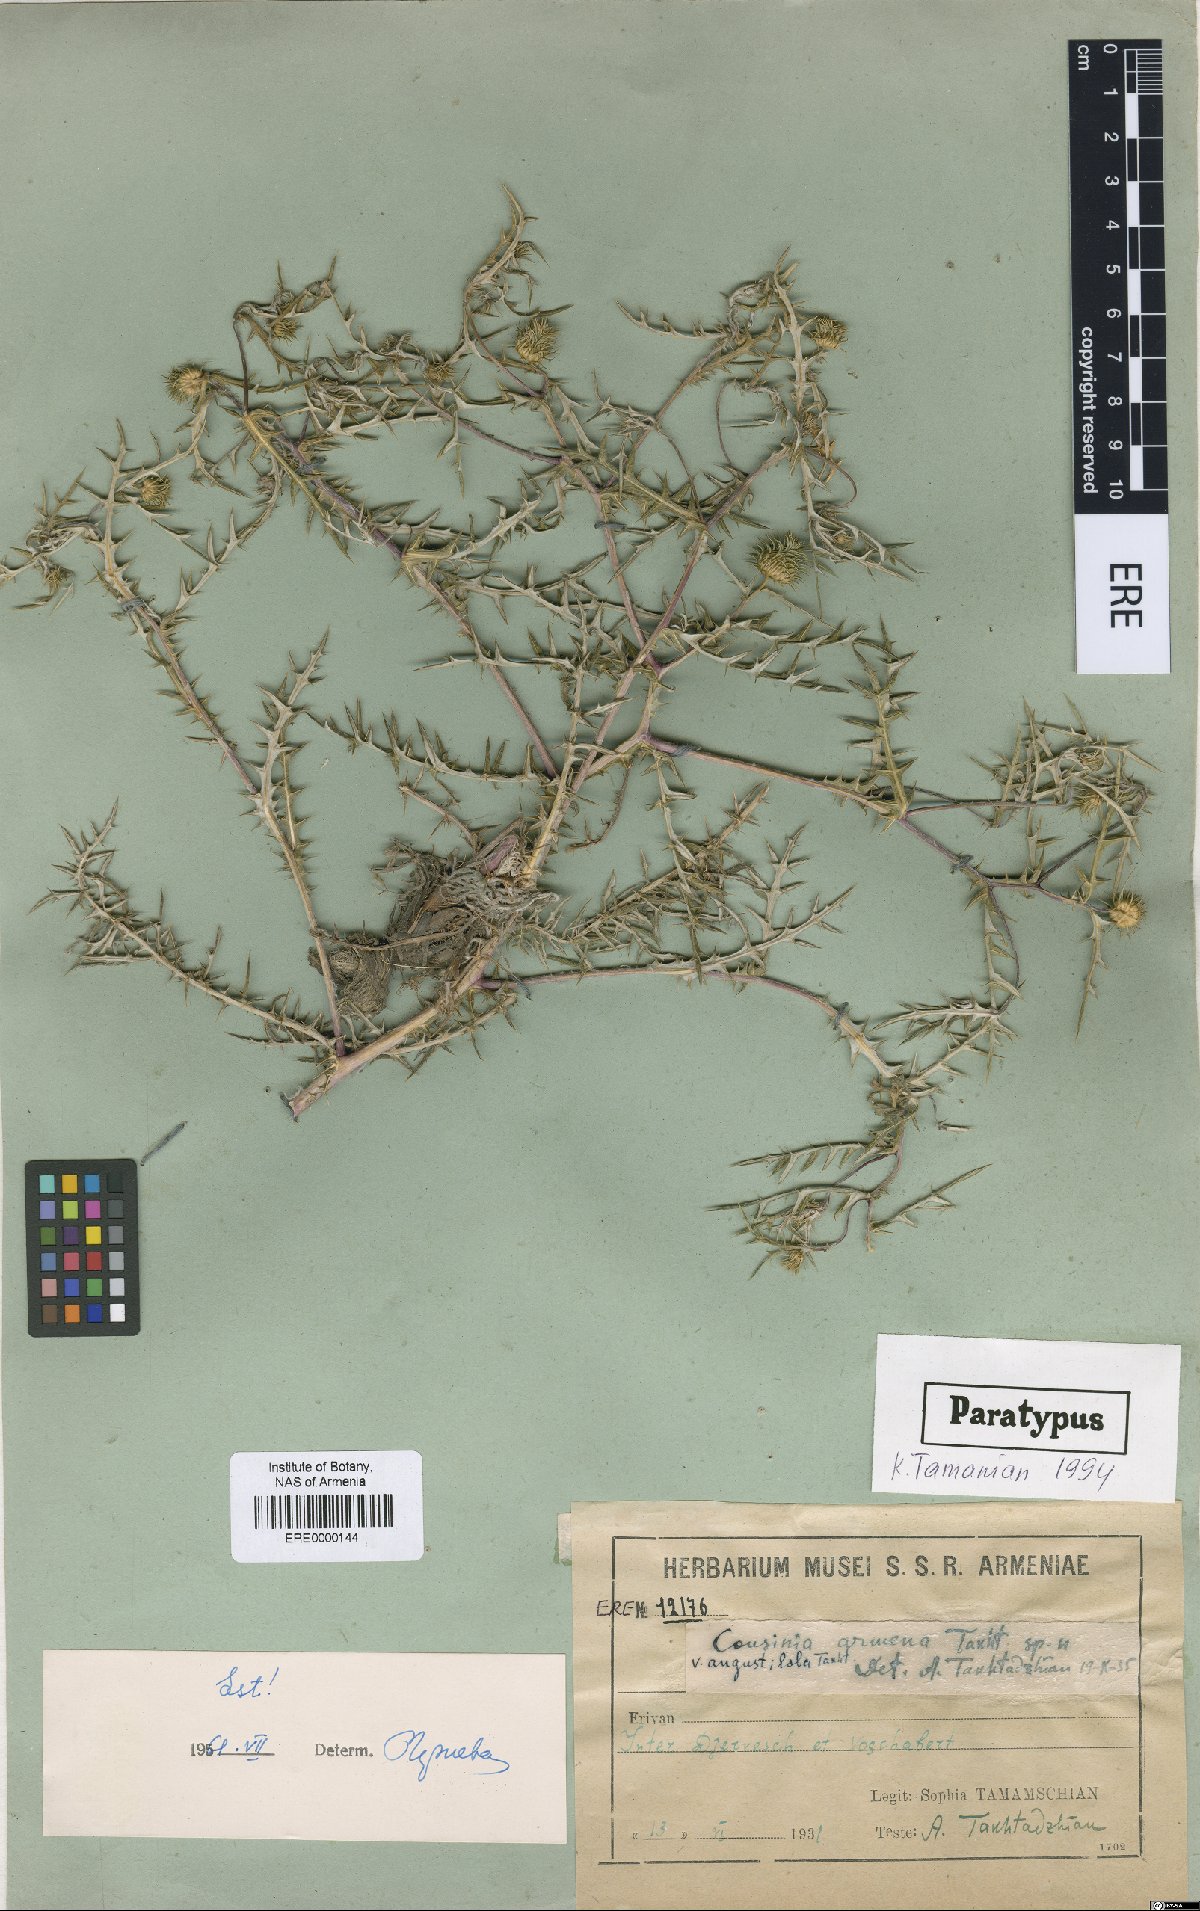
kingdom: Plantae
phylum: Tracheophyta
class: Magnoliopsida
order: Asterales
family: Asteraceae
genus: Cousinia
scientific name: Cousinia armena
